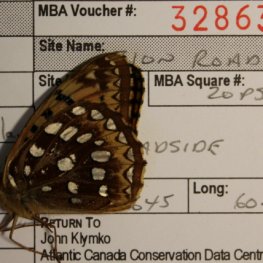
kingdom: Animalia
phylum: Arthropoda
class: Insecta
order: Lepidoptera
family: Nymphalidae
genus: Speyeria
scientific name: Speyeria cybele
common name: Great Spangled Fritillary
